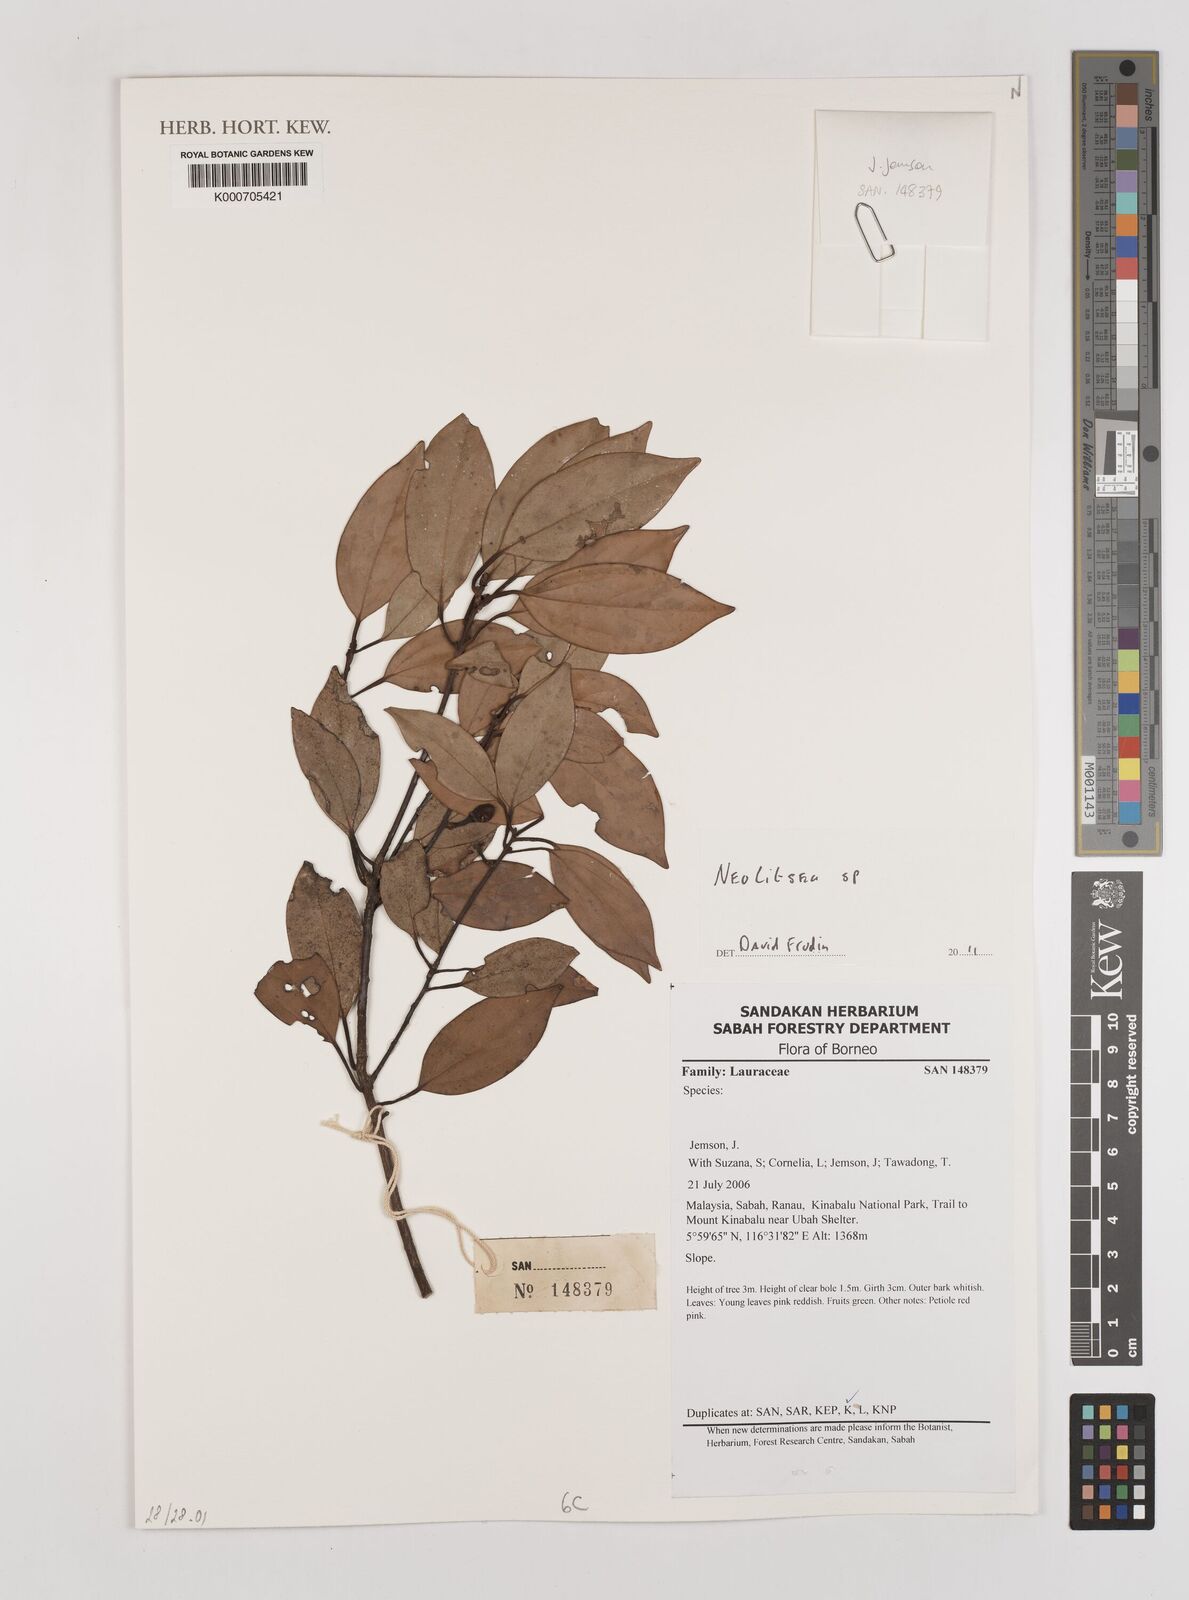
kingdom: Plantae
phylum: Tracheophyta
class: Magnoliopsida
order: Laurales
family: Lauraceae
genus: Neolitsea
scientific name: Neolitsea
